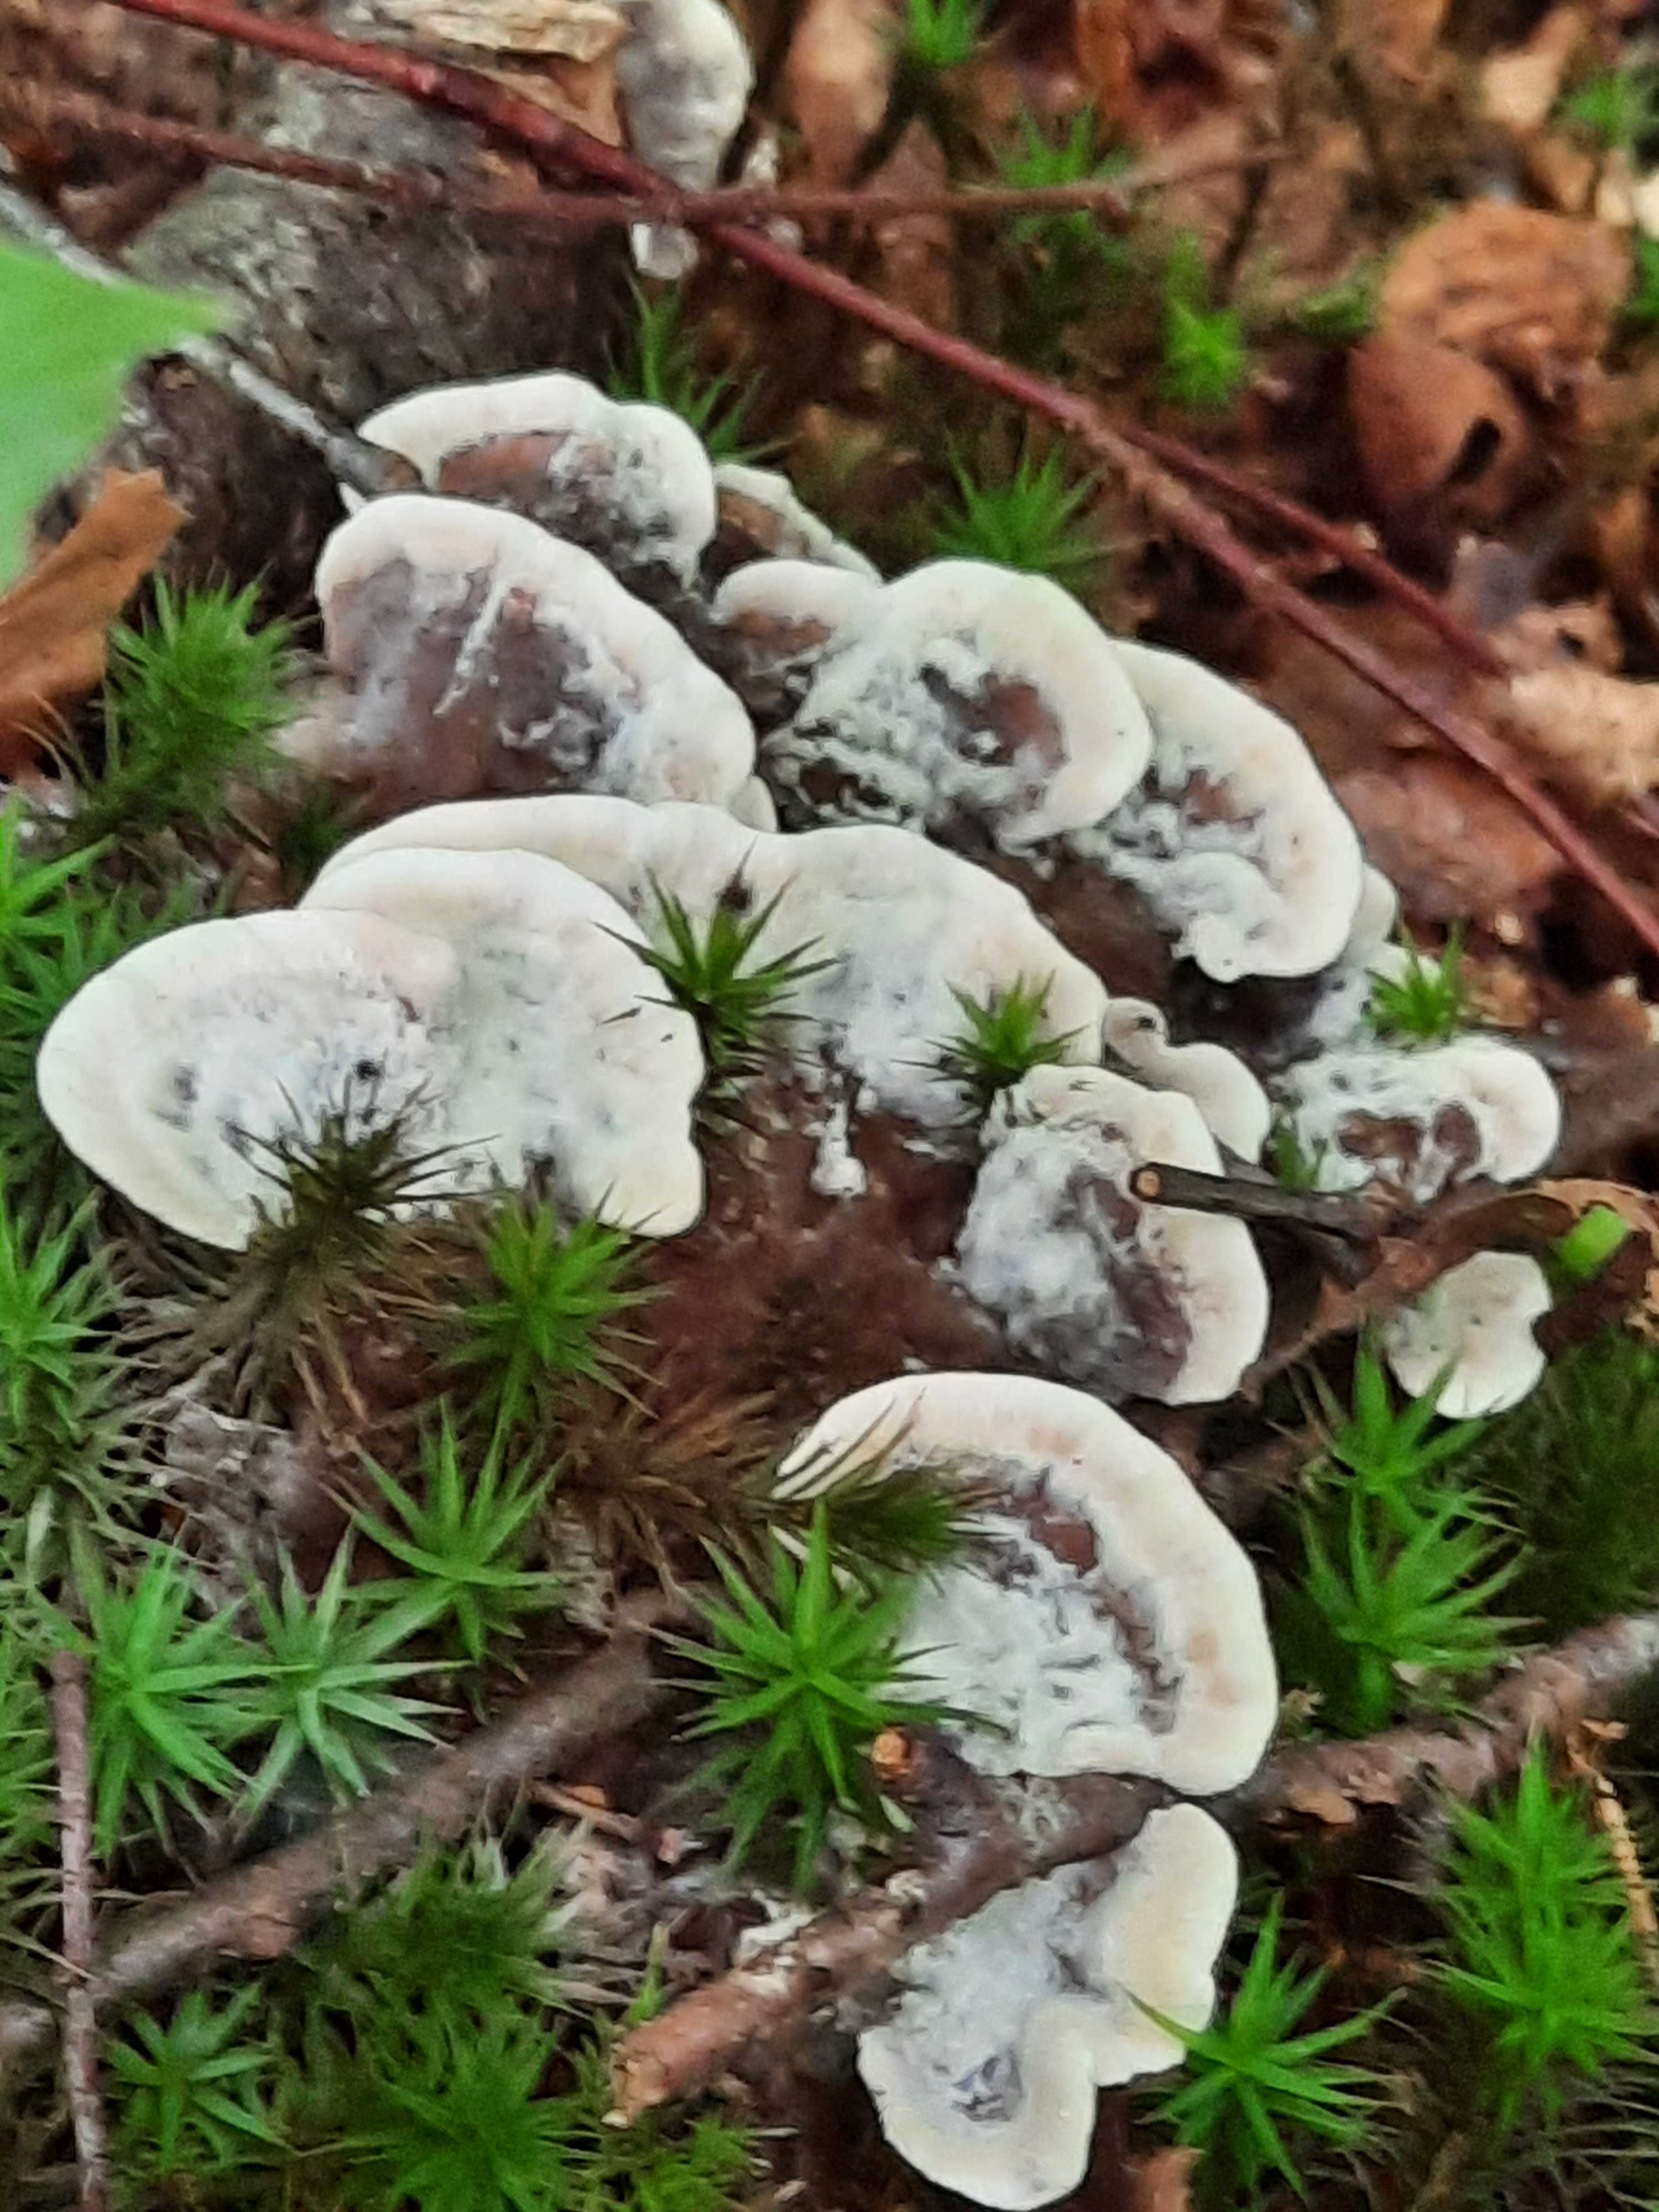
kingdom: Fungi
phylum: Basidiomycota
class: Agaricomycetes
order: Thelephorales
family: Thelephoraceae
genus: Phellodon
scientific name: Phellodon confluens
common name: pjaltet duftpigsvamp
